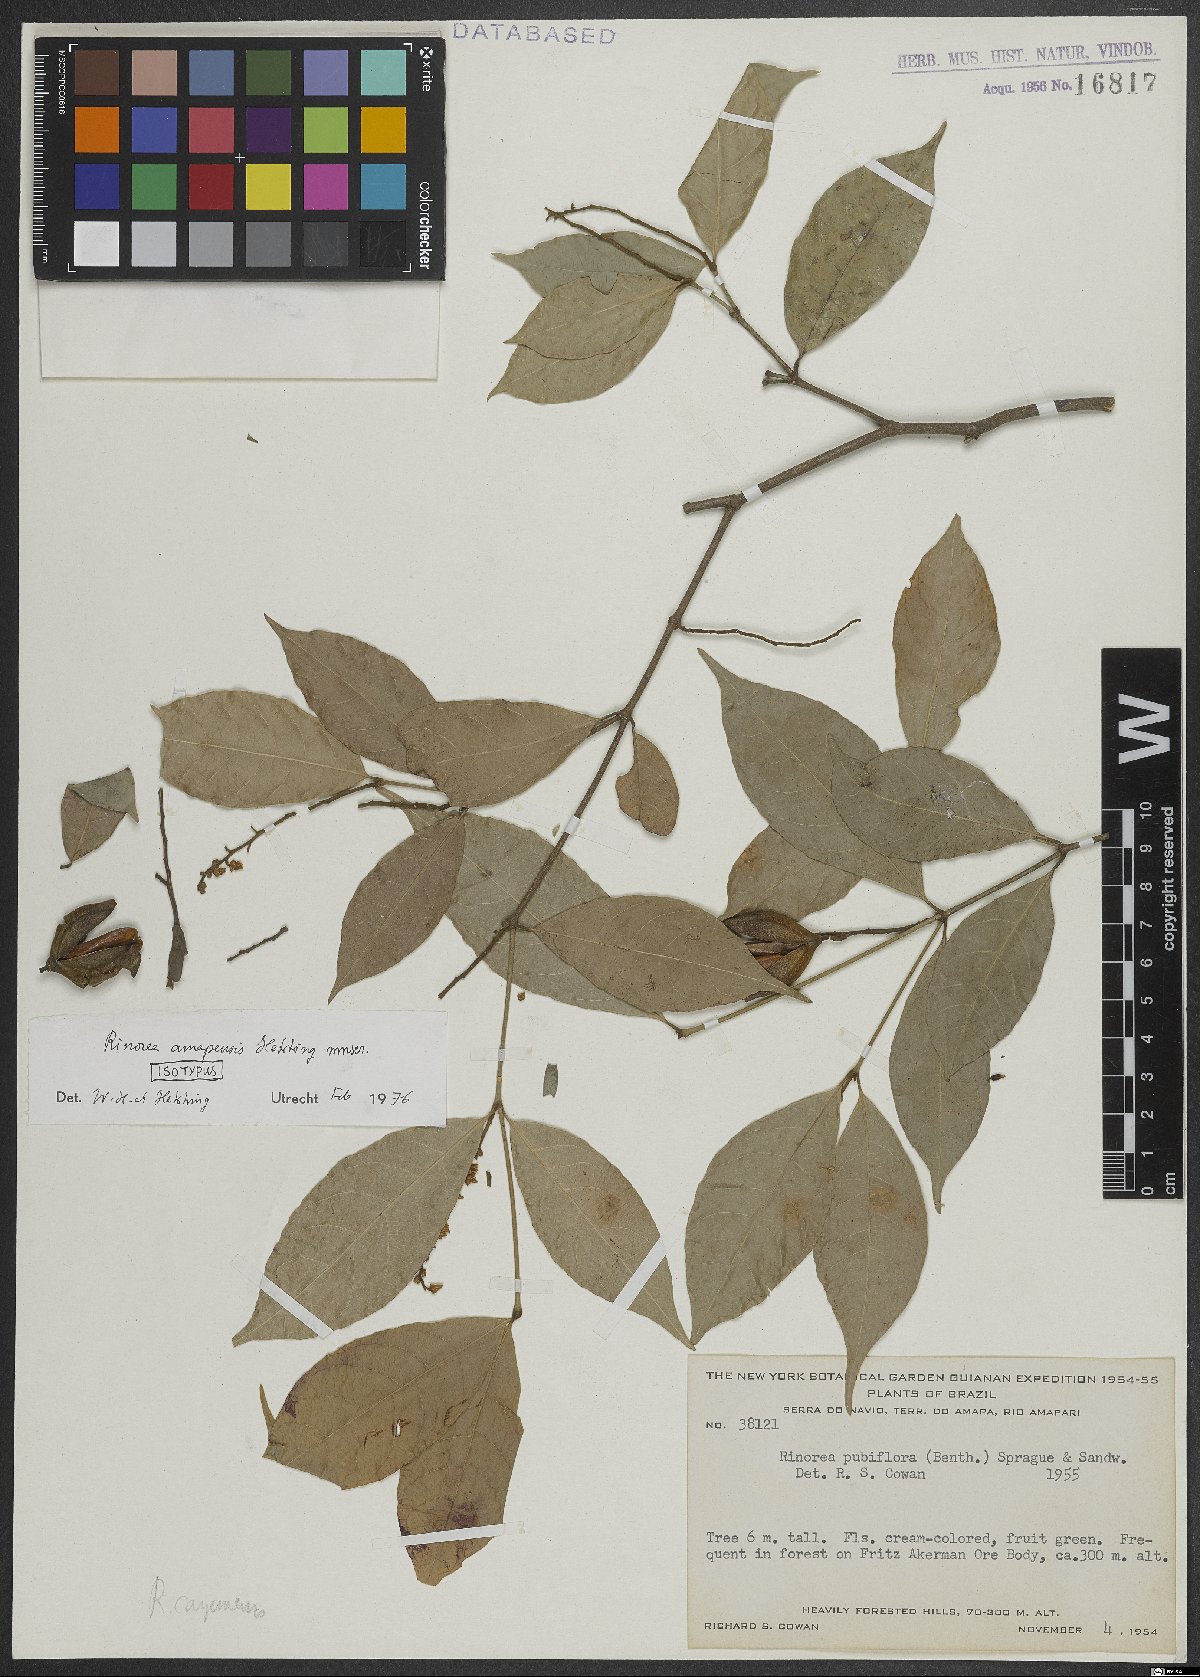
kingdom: Plantae
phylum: Tracheophyta
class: Magnoliopsida
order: Malpighiales
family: Violaceae
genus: Rinorea
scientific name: Rinorea amapensis
